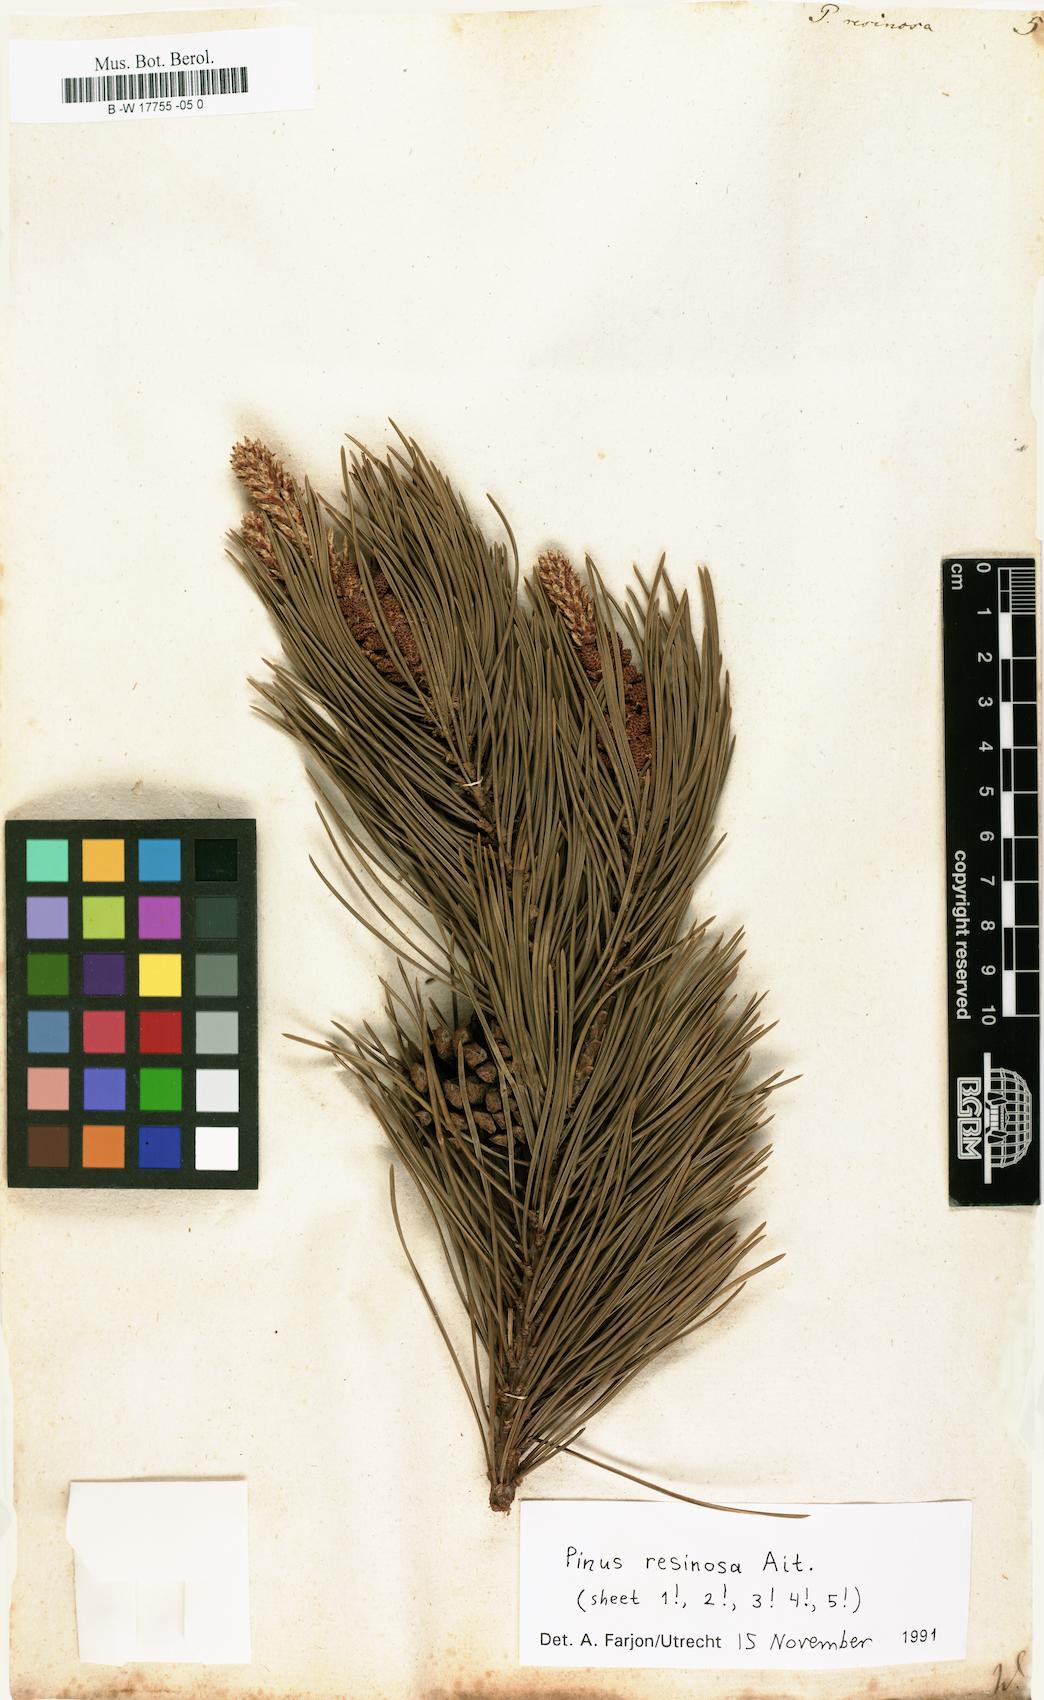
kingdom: Plantae
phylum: Tracheophyta
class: Pinopsida
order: Pinales
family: Pinaceae
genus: Pinus
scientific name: Pinus resinosa
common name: Norway pine
